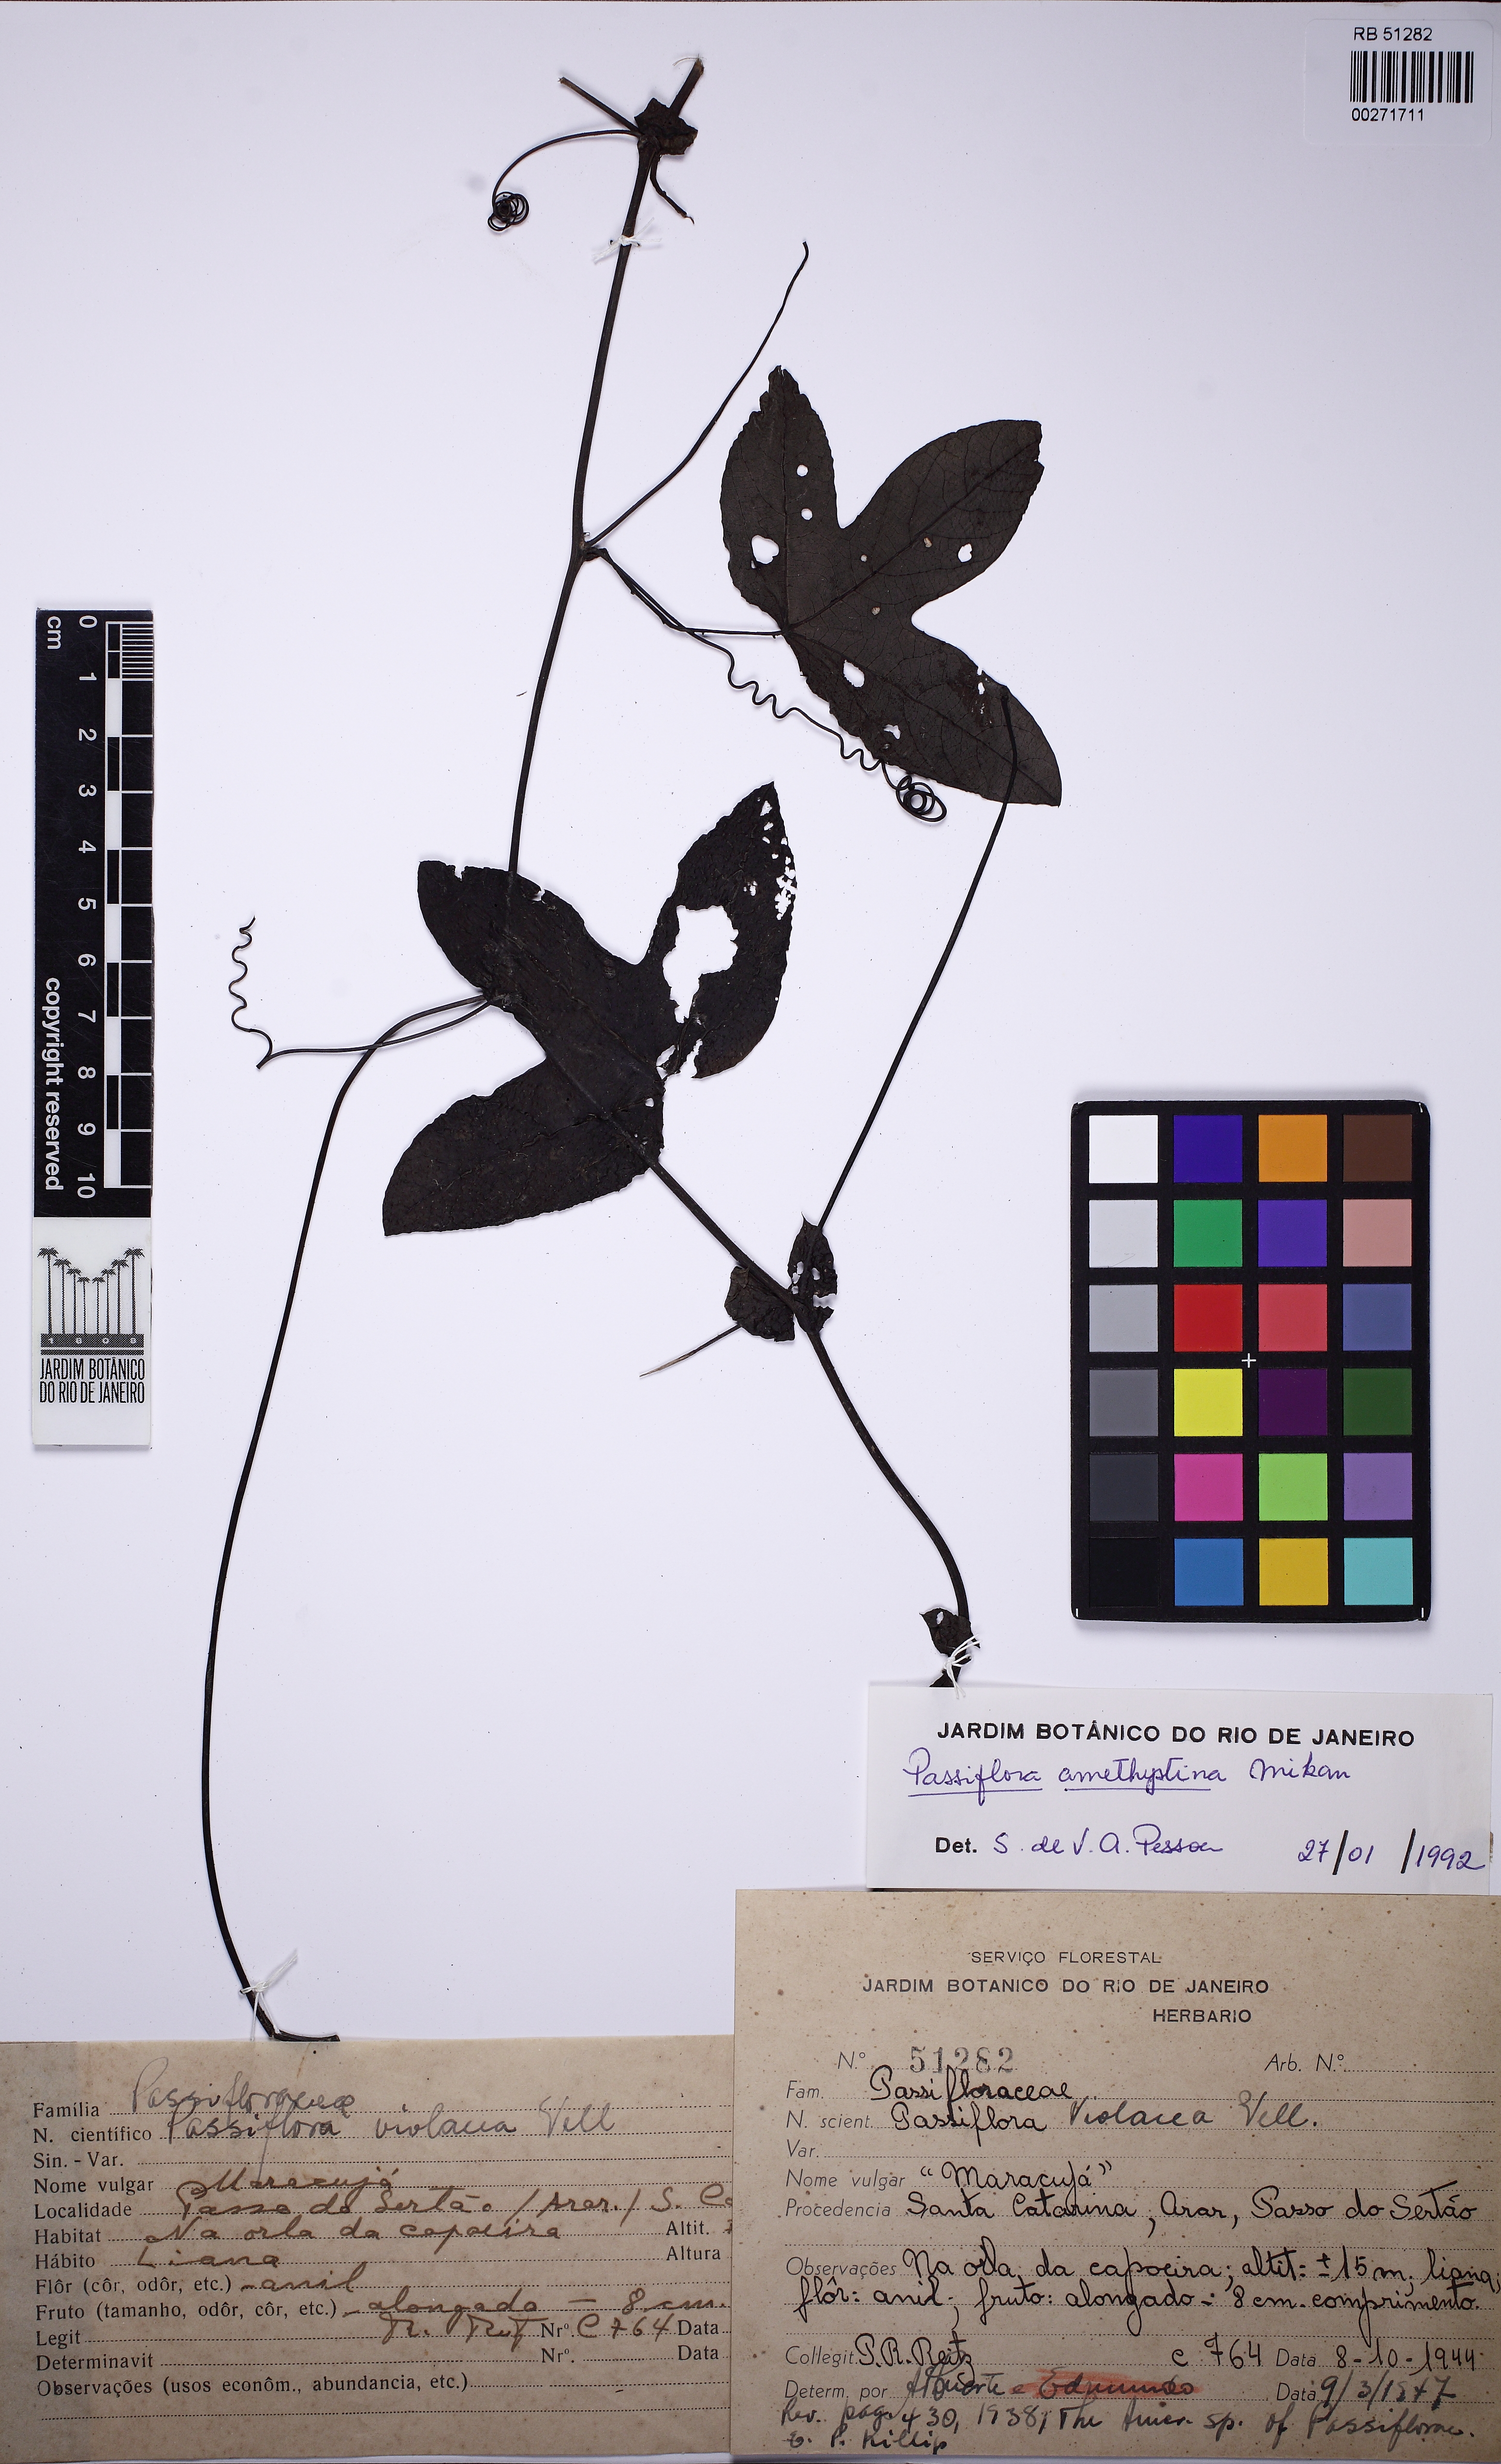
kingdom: Plantae
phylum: Tracheophyta
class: Magnoliopsida
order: Malpighiales
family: Passifloraceae
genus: Passiflora
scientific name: Passiflora amethystina
